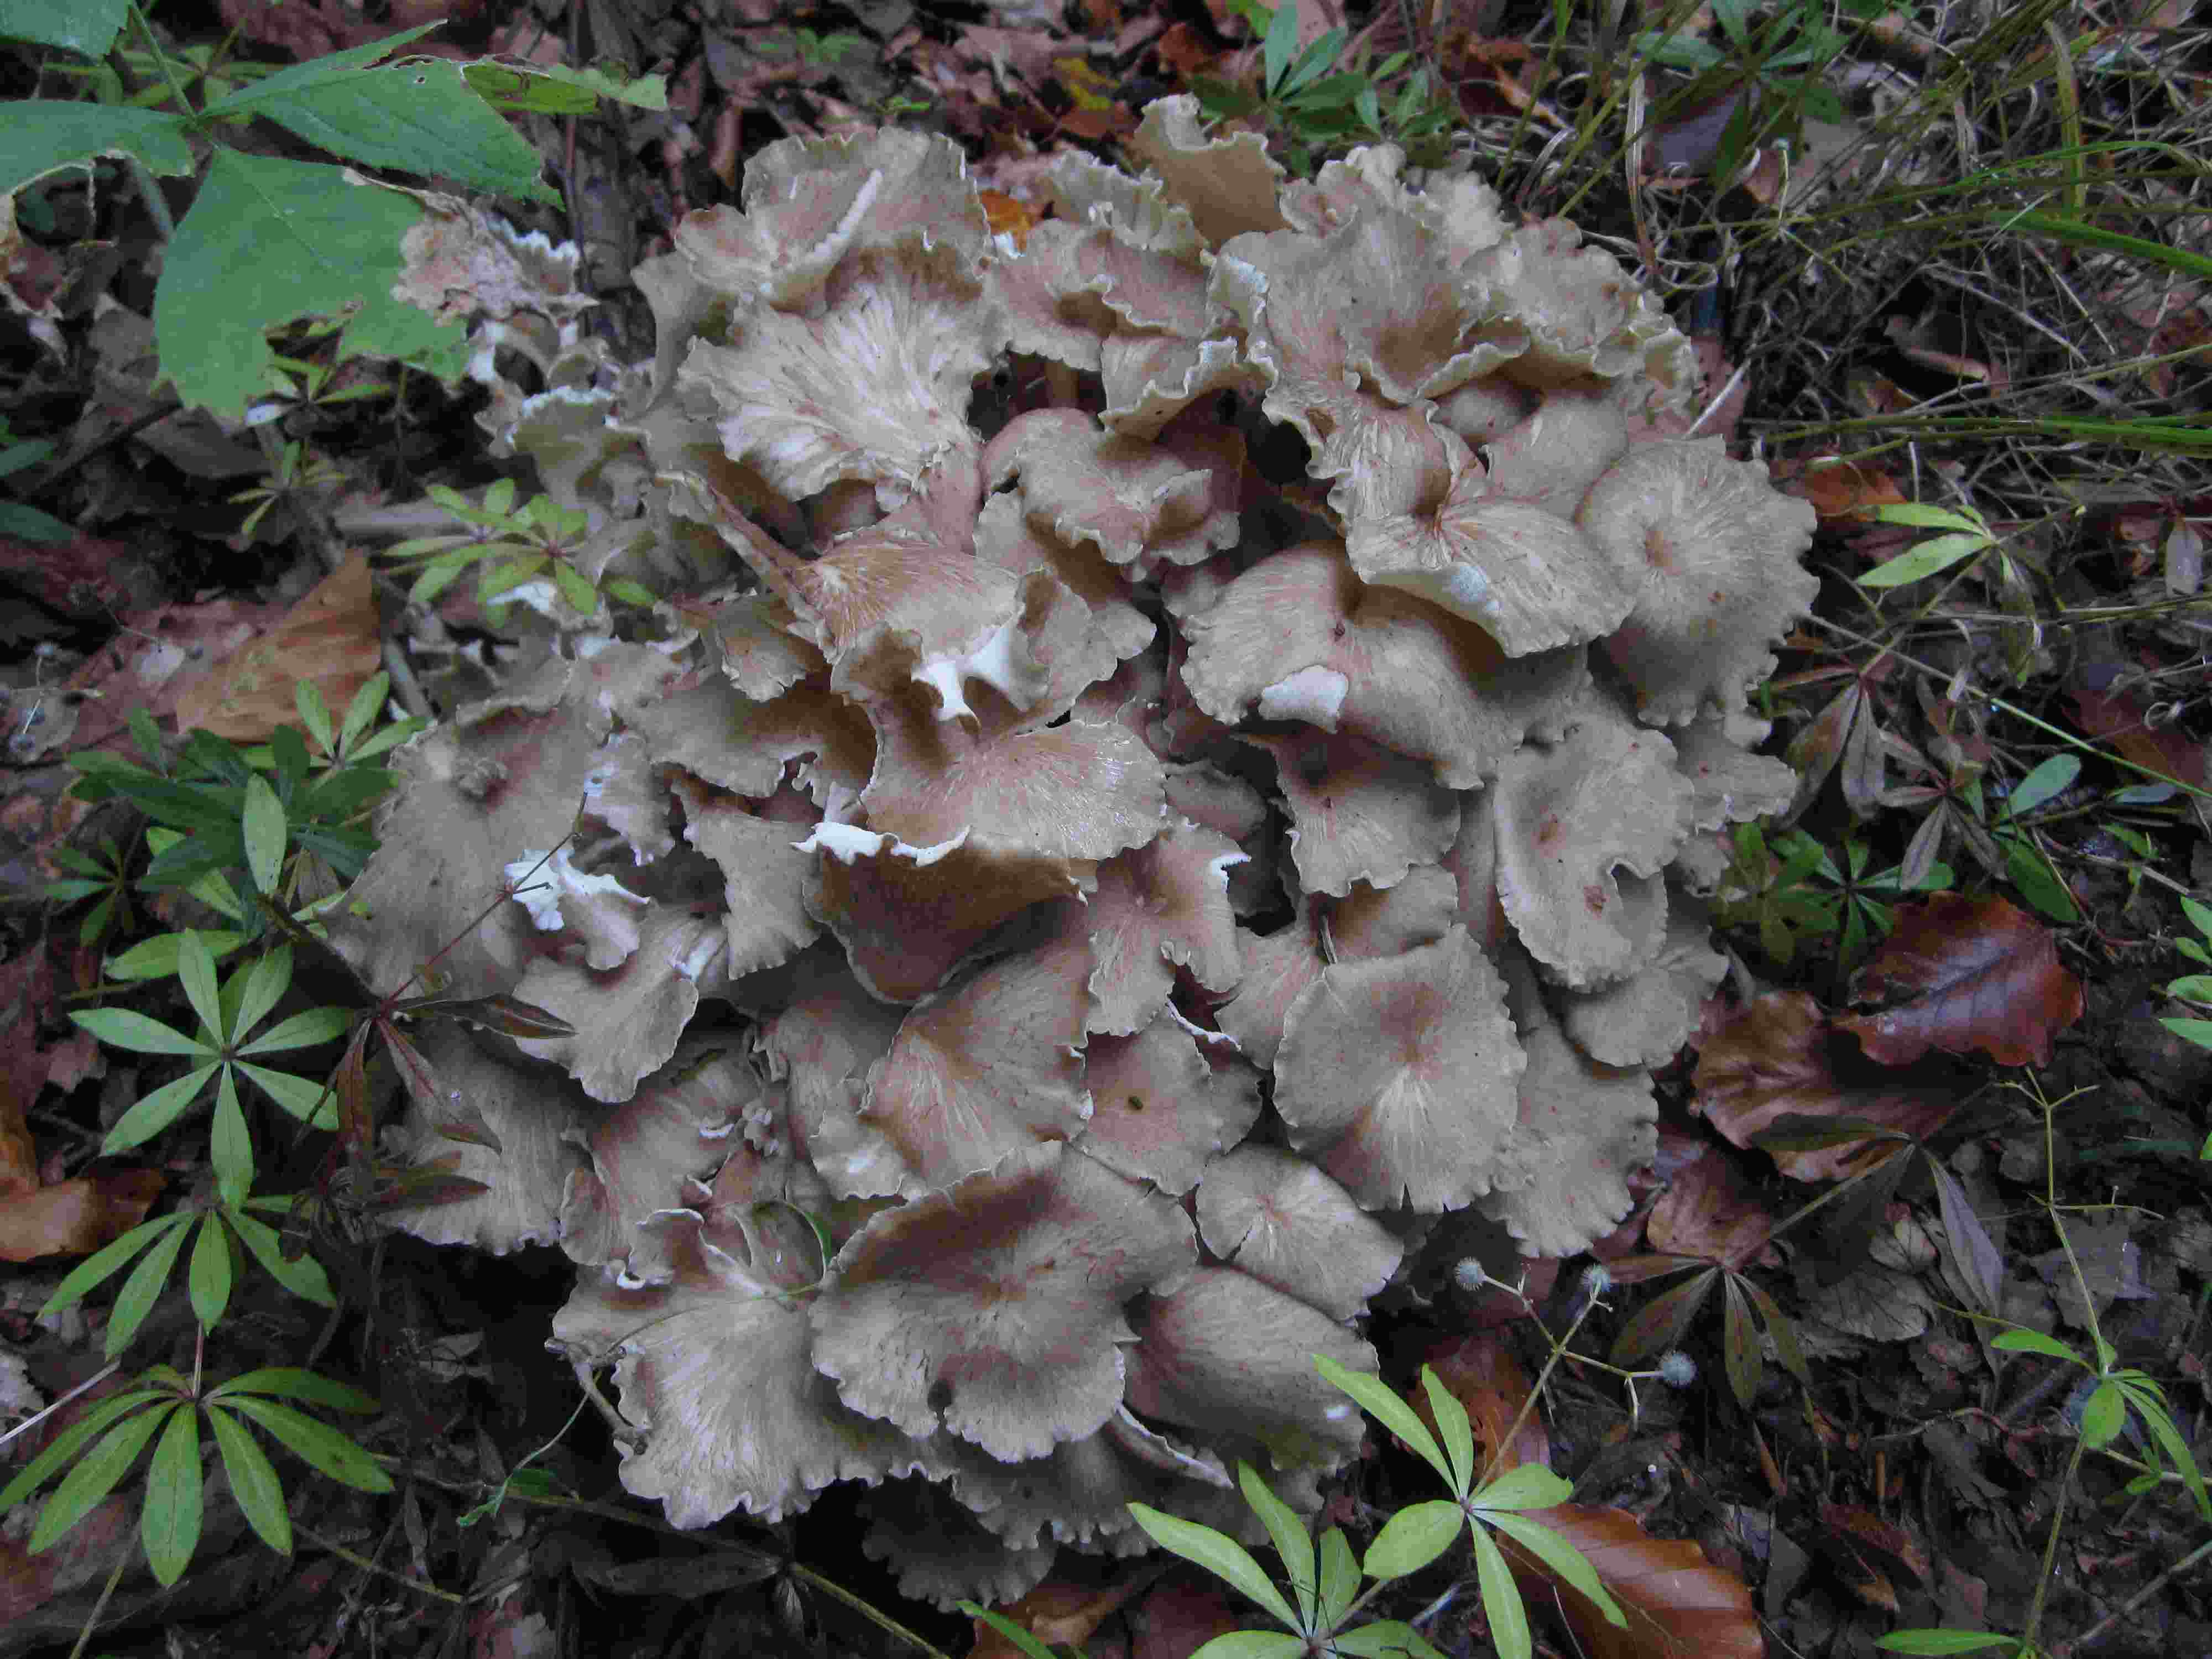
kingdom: Fungi
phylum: Basidiomycota
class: Agaricomycetes
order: Polyporales
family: Polyporaceae
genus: Polyporus
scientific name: Polyporus umbellatus
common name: skærmformet stilkporesvamp
